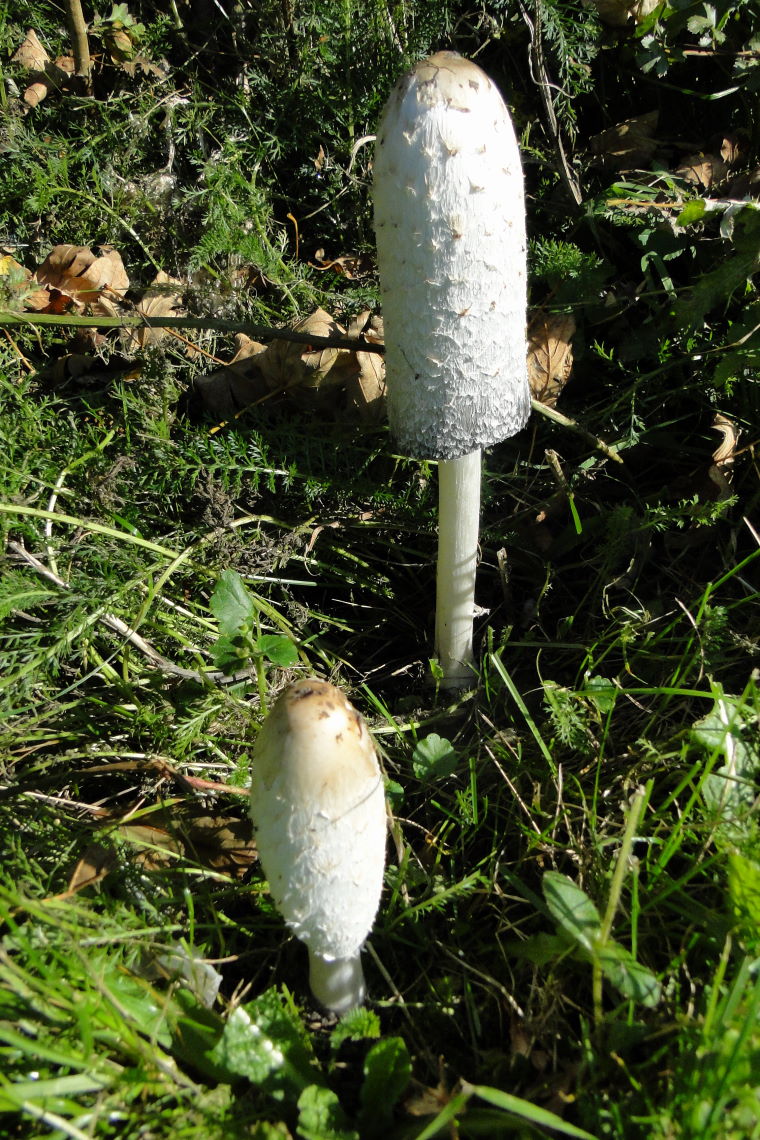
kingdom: Fungi
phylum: Basidiomycota
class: Agaricomycetes
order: Agaricales
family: Agaricaceae
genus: Coprinus
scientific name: Coprinus comatus
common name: stor parykhat
